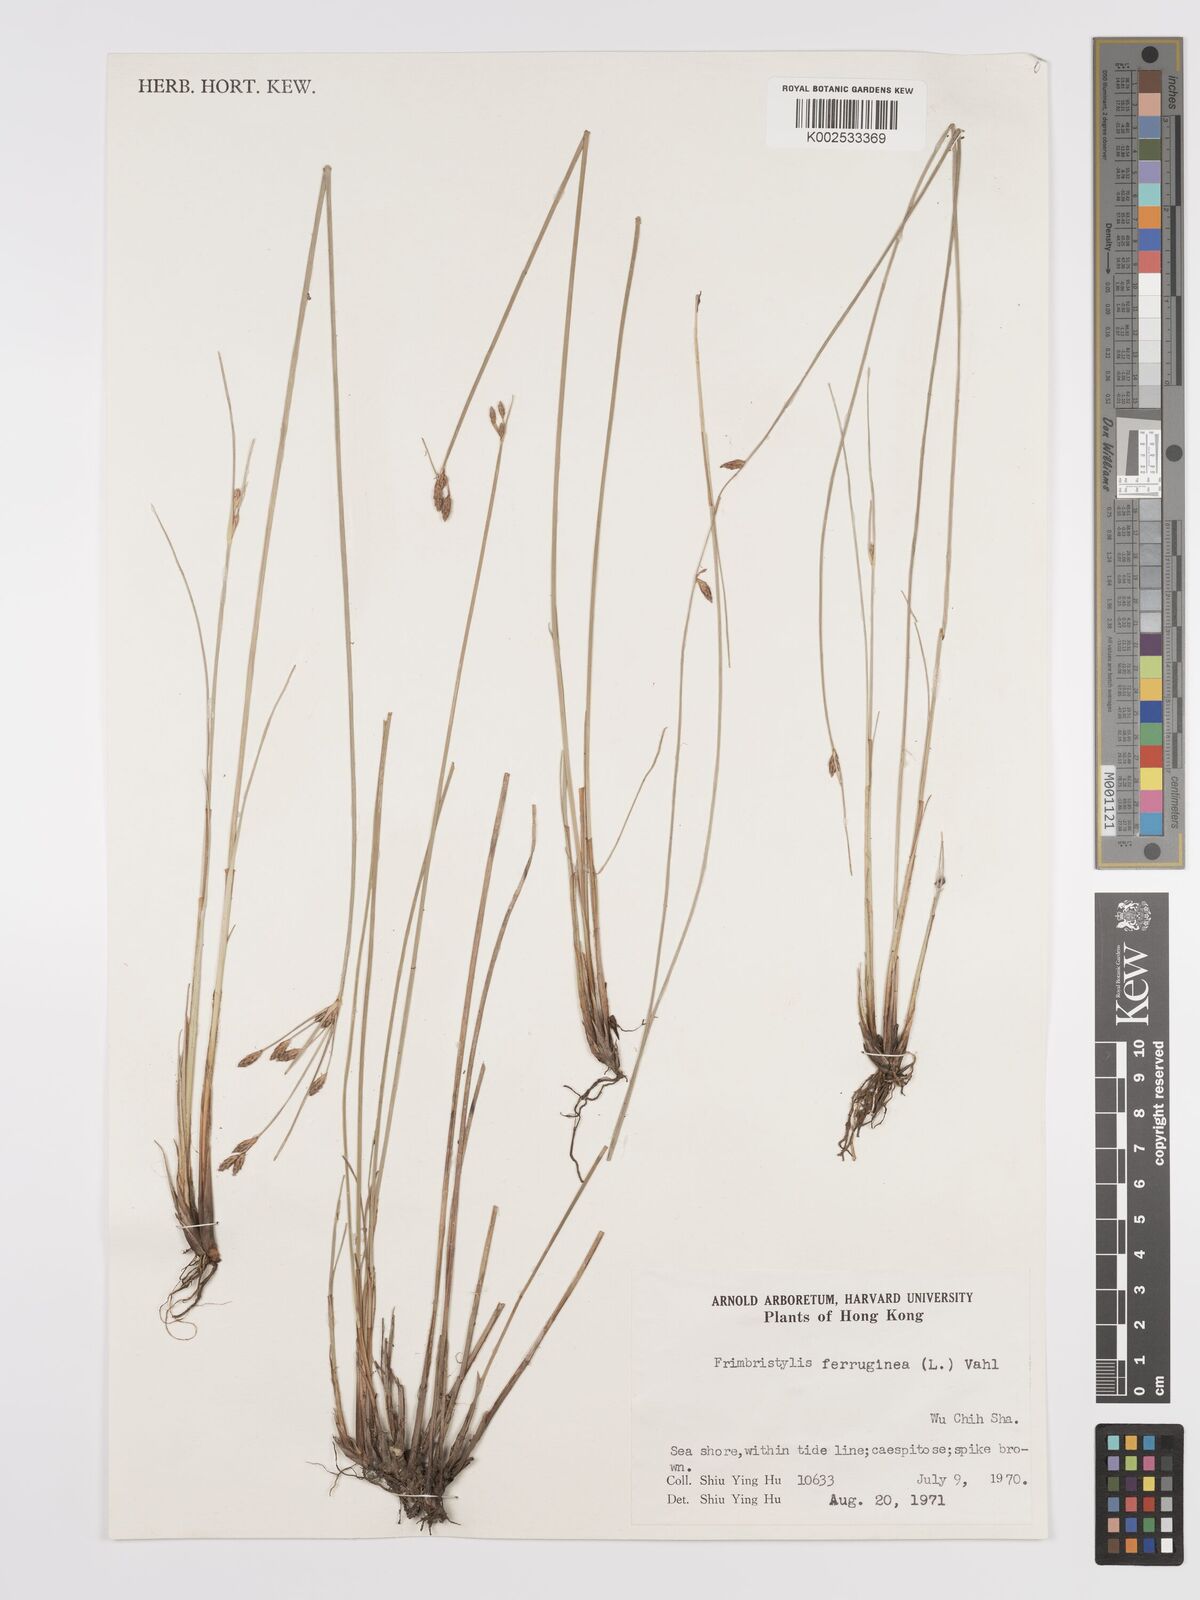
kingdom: Plantae
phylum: Tracheophyta
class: Liliopsida
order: Poales
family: Cyperaceae
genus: Fimbristylis
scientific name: Fimbristylis ferruginea
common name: West indian fimbry
